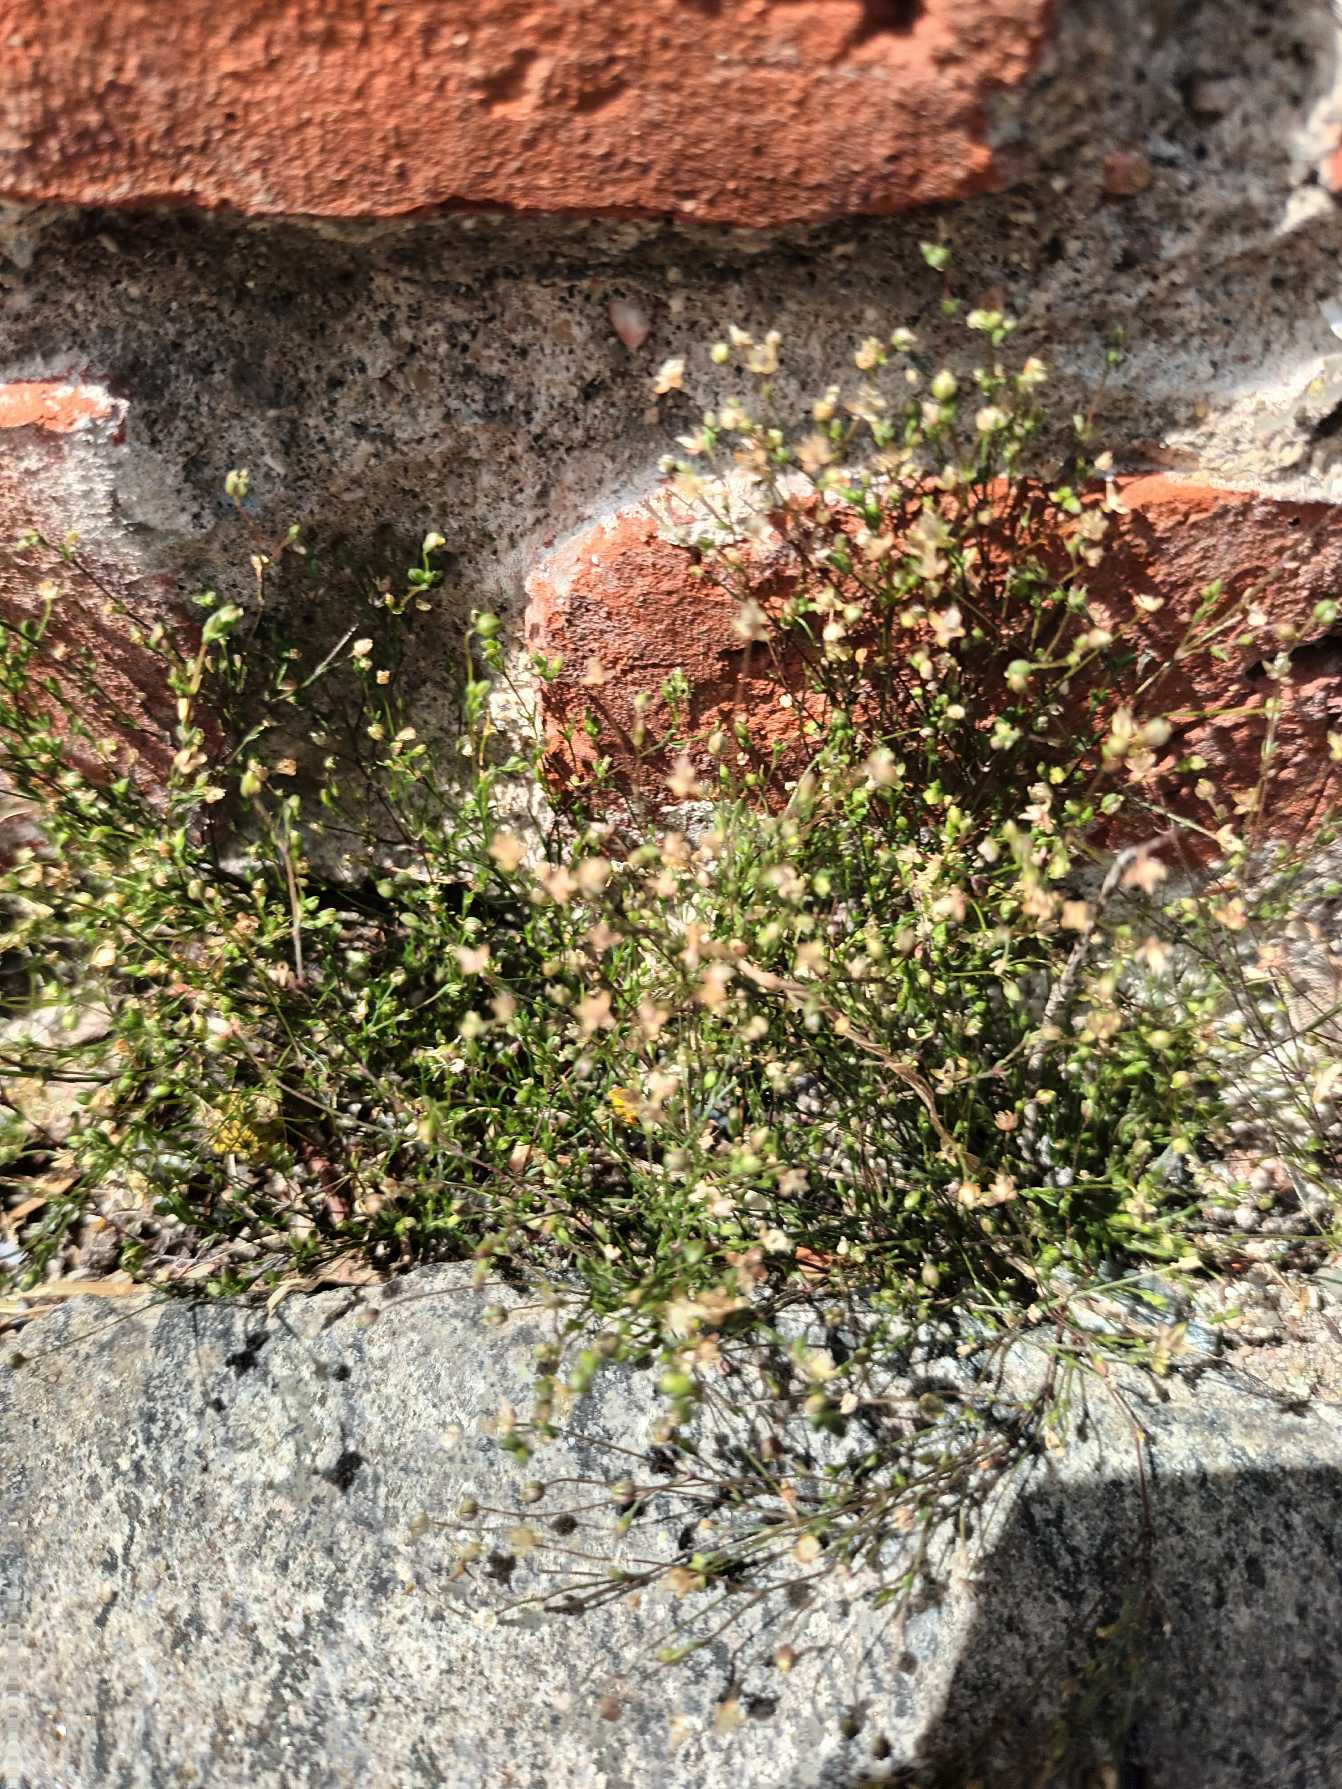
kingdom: Plantae
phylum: Tracheophyta
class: Magnoliopsida
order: Caryophyllales
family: Caryophyllaceae
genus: Sagina
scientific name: Sagina micropetala
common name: Håret firling
